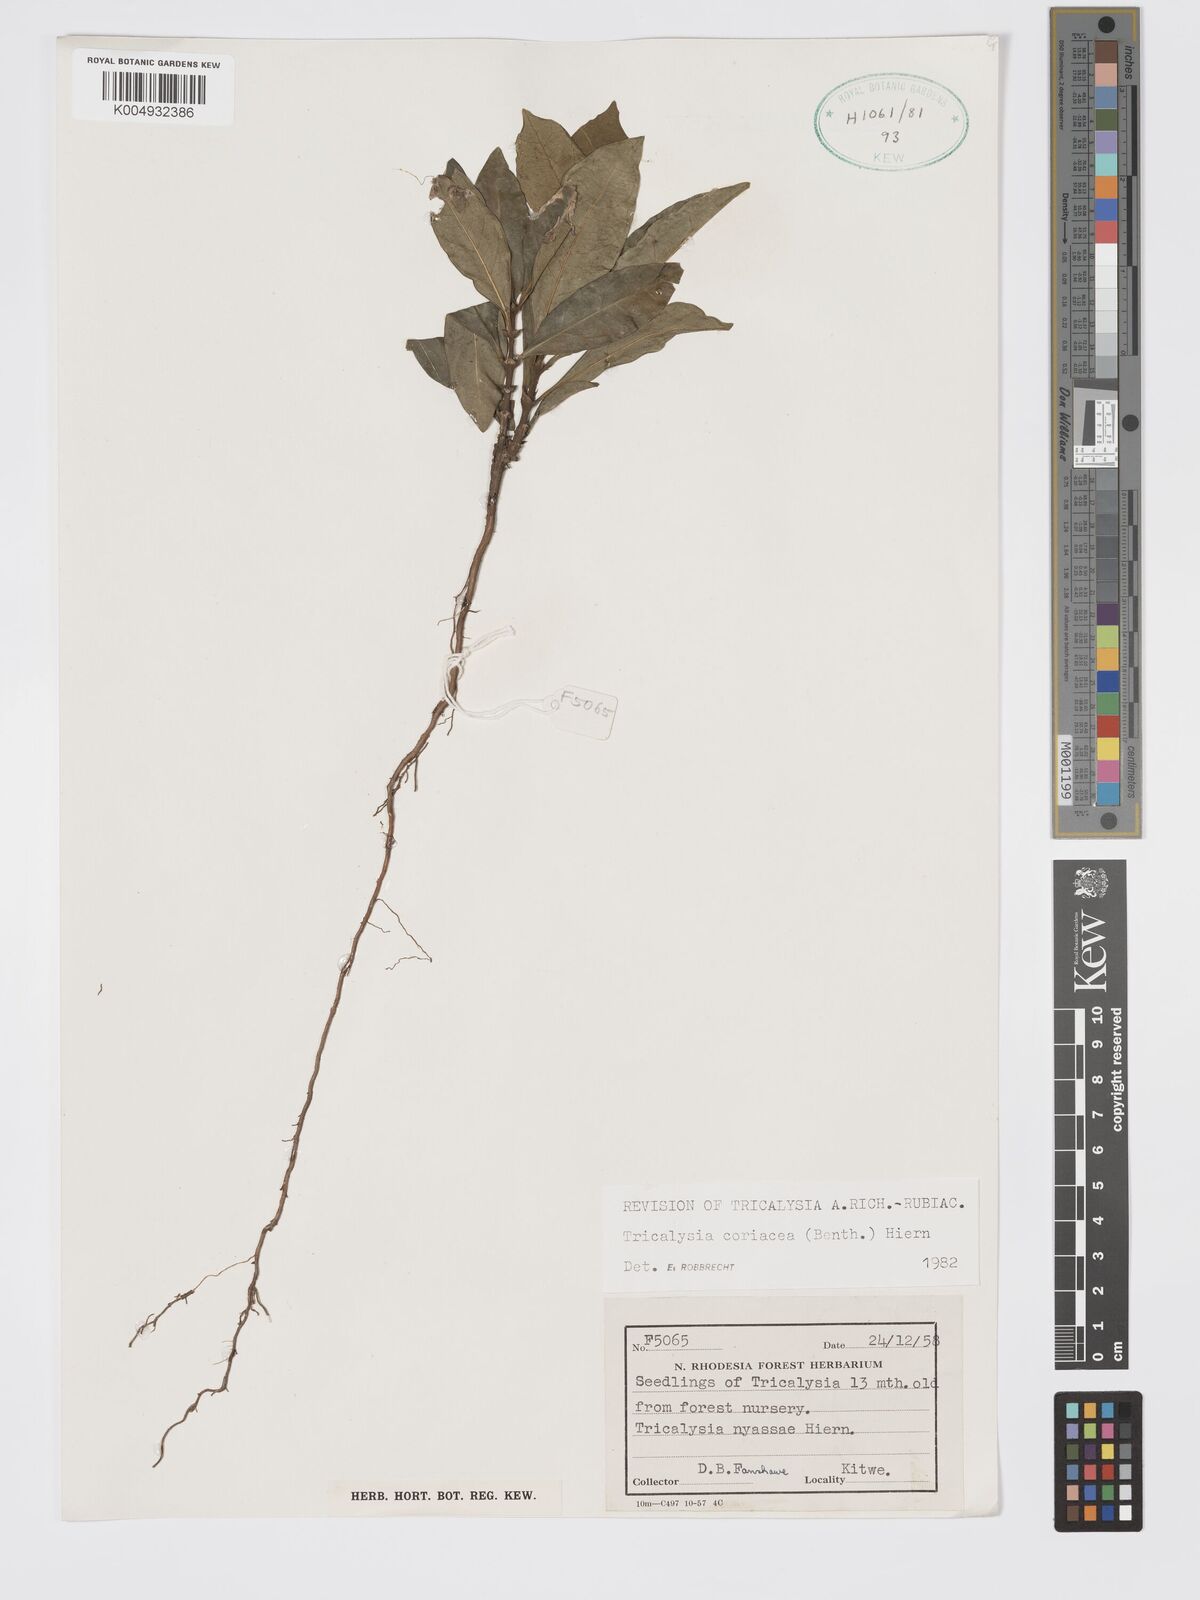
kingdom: Plantae
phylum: Tracheophyta
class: Magnoliopsida
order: Gentianales
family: Rubiaceae
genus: Tricalysia
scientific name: Tricalysia coriacea
